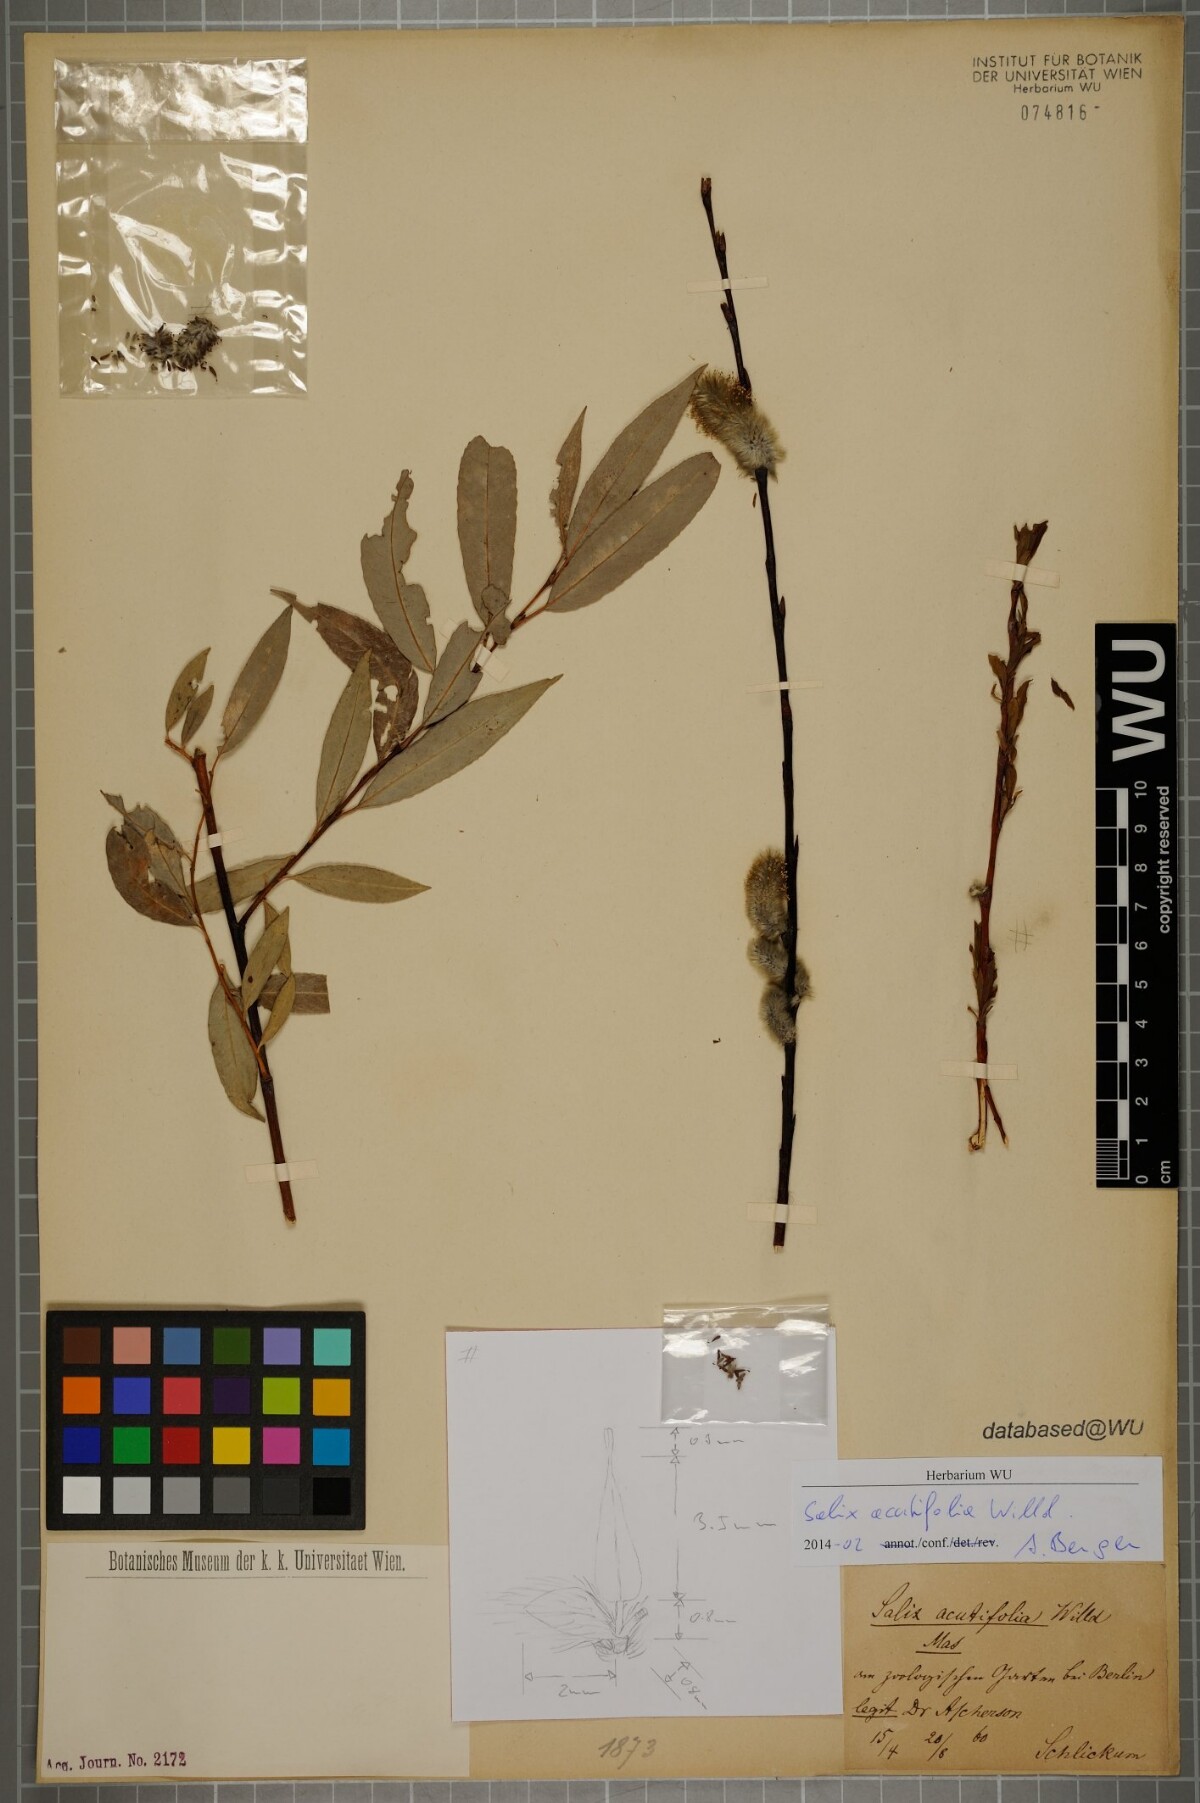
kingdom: Plantae
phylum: Tracheophyta
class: Magnoliopsida
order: Malpighiales
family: Salicaceae
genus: Salix
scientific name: Salix acutifolia
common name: Siberian violet-willow
